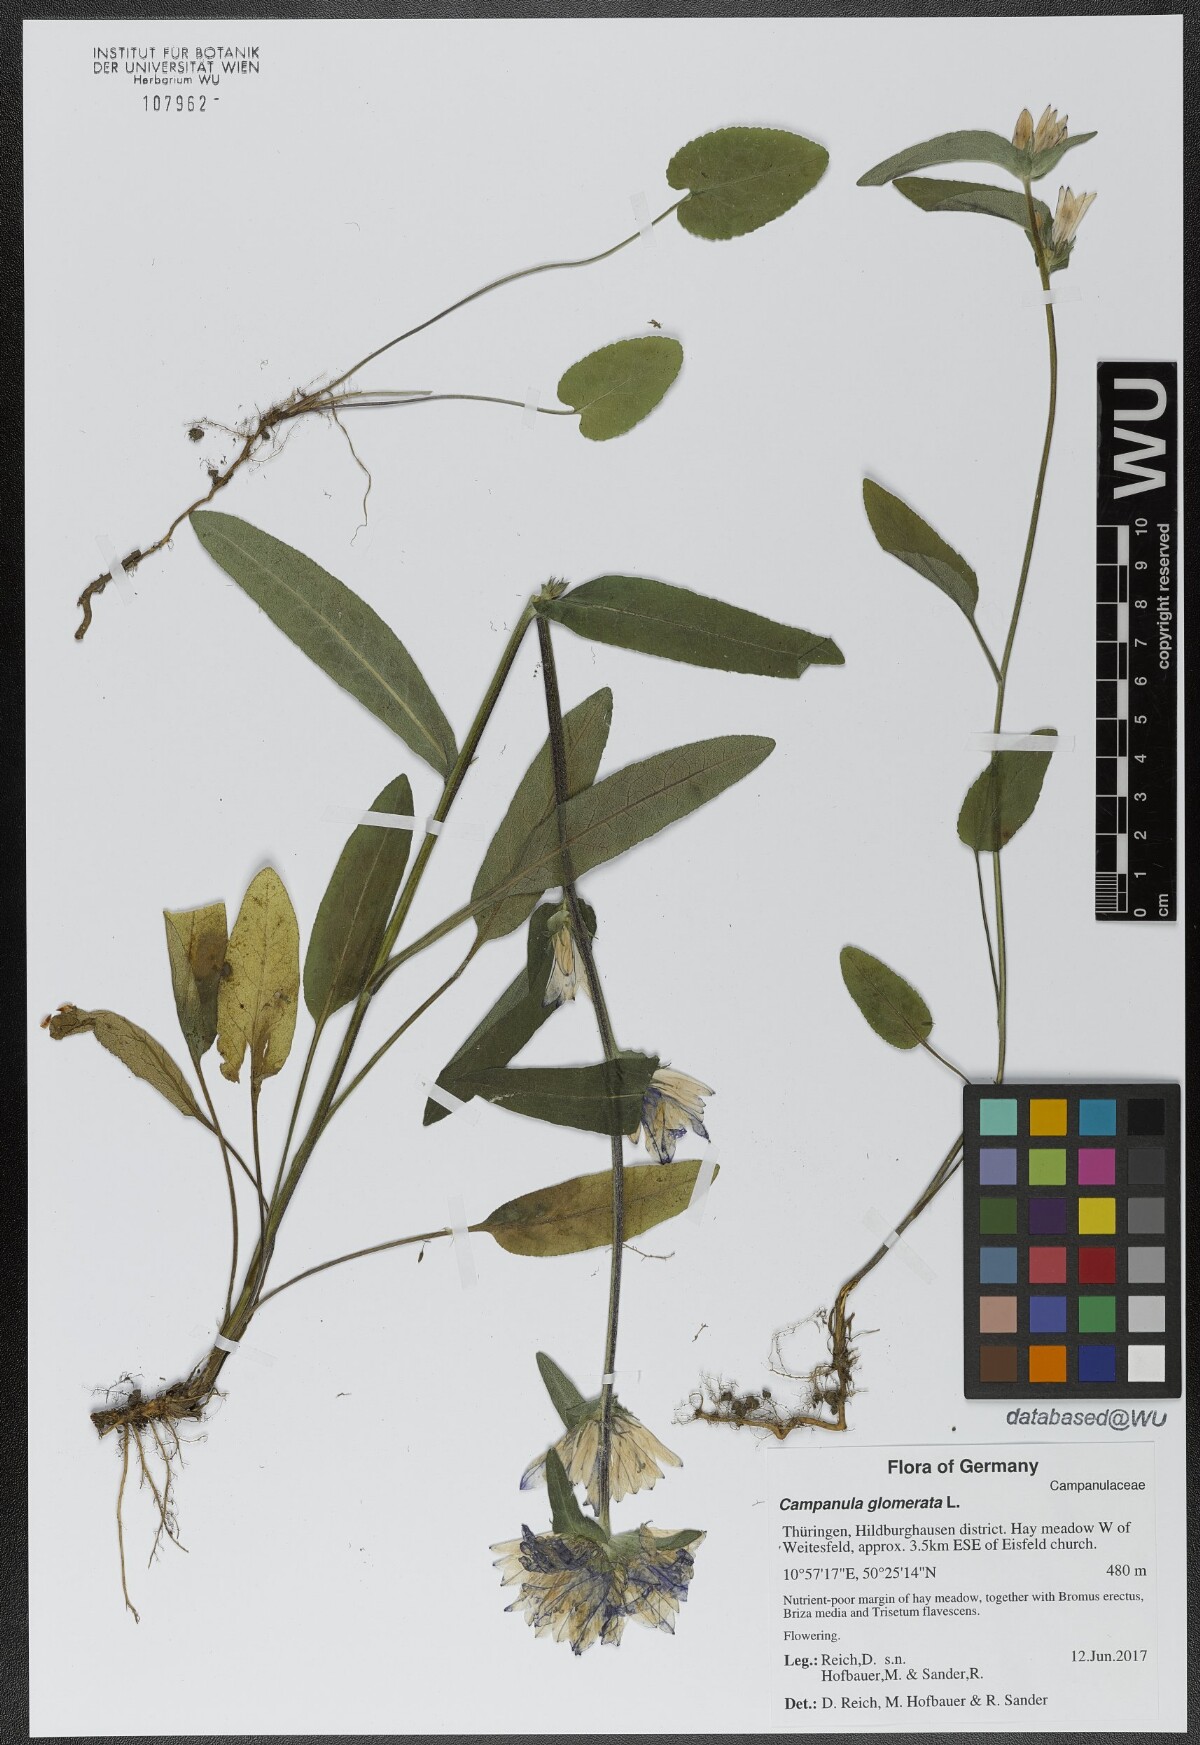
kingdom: Plantae
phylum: Tracheophyta
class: Magnoliopsida
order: Asterales
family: Campanulaceae
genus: Campanula
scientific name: Campanula glomerata
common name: Clustered bellflower
